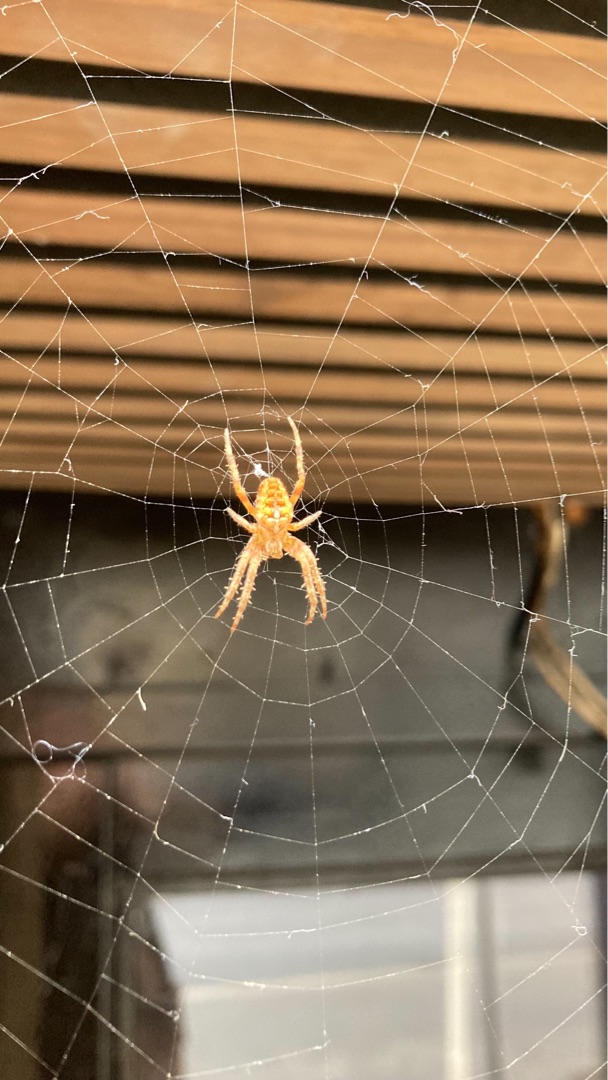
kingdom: Animalia
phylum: Arthropoda
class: Arachnida
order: Araneae
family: Araneidae
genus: Araneus
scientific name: Araneus diadematus
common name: Korsedderkop
